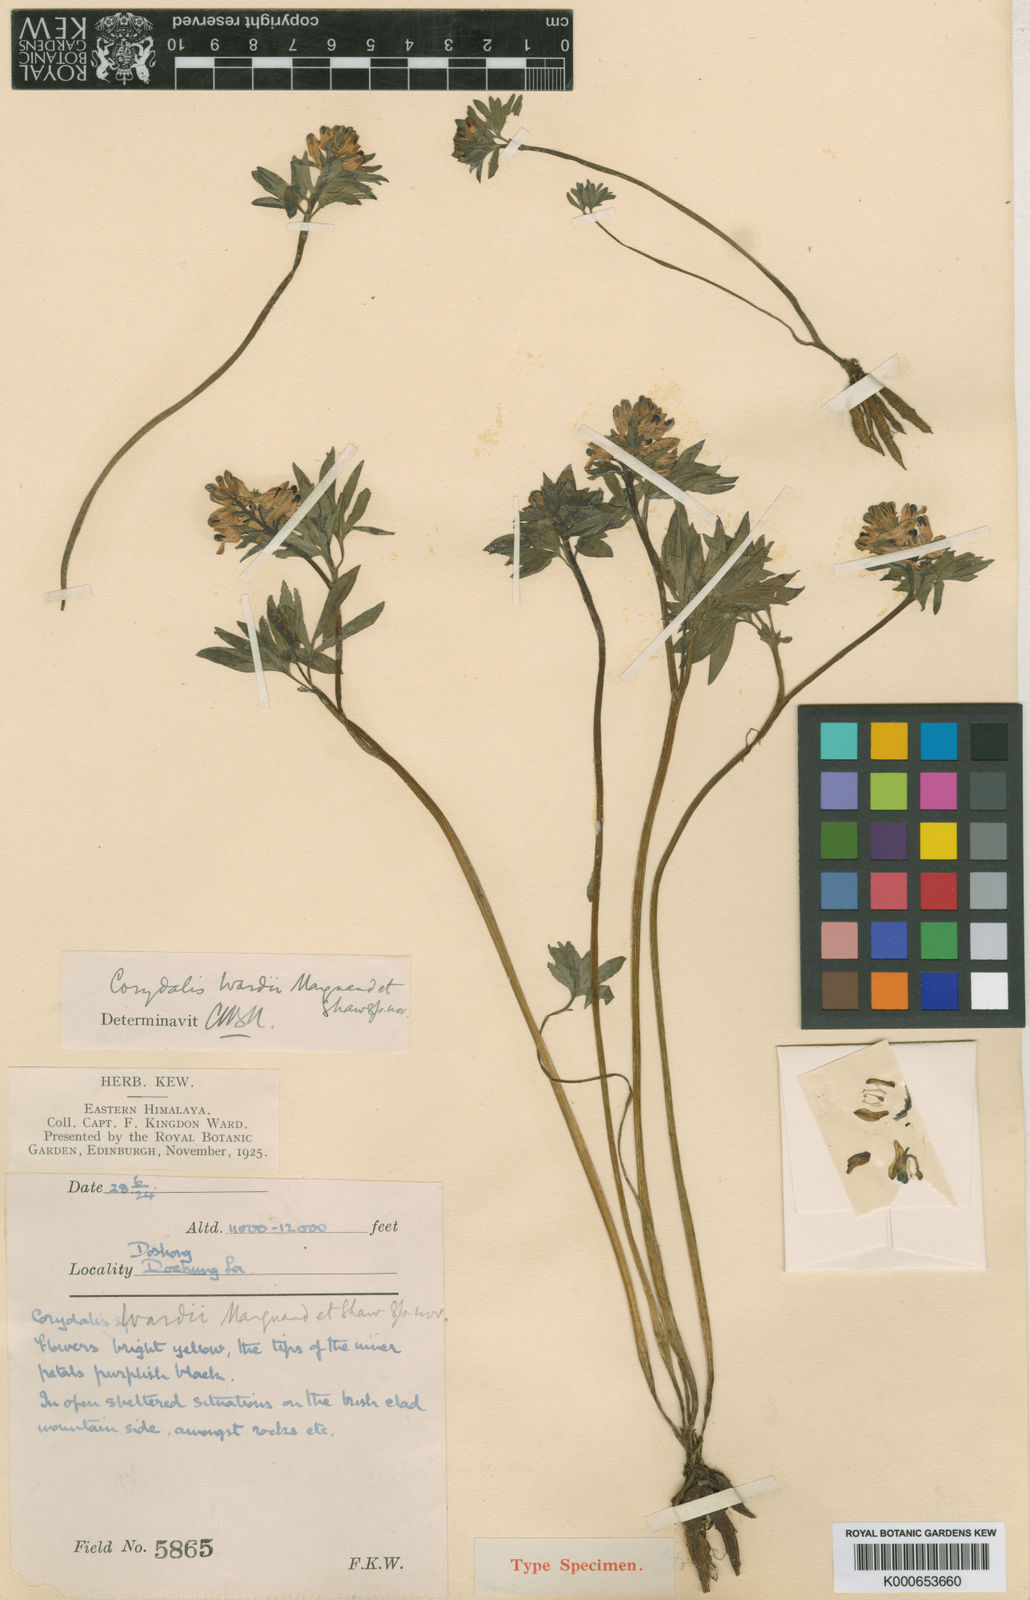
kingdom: Plantae
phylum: Tracheophyta
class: Magnoliopsida
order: Ranunculales
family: Papaveraceae
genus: Corydalis
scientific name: Corydalis
